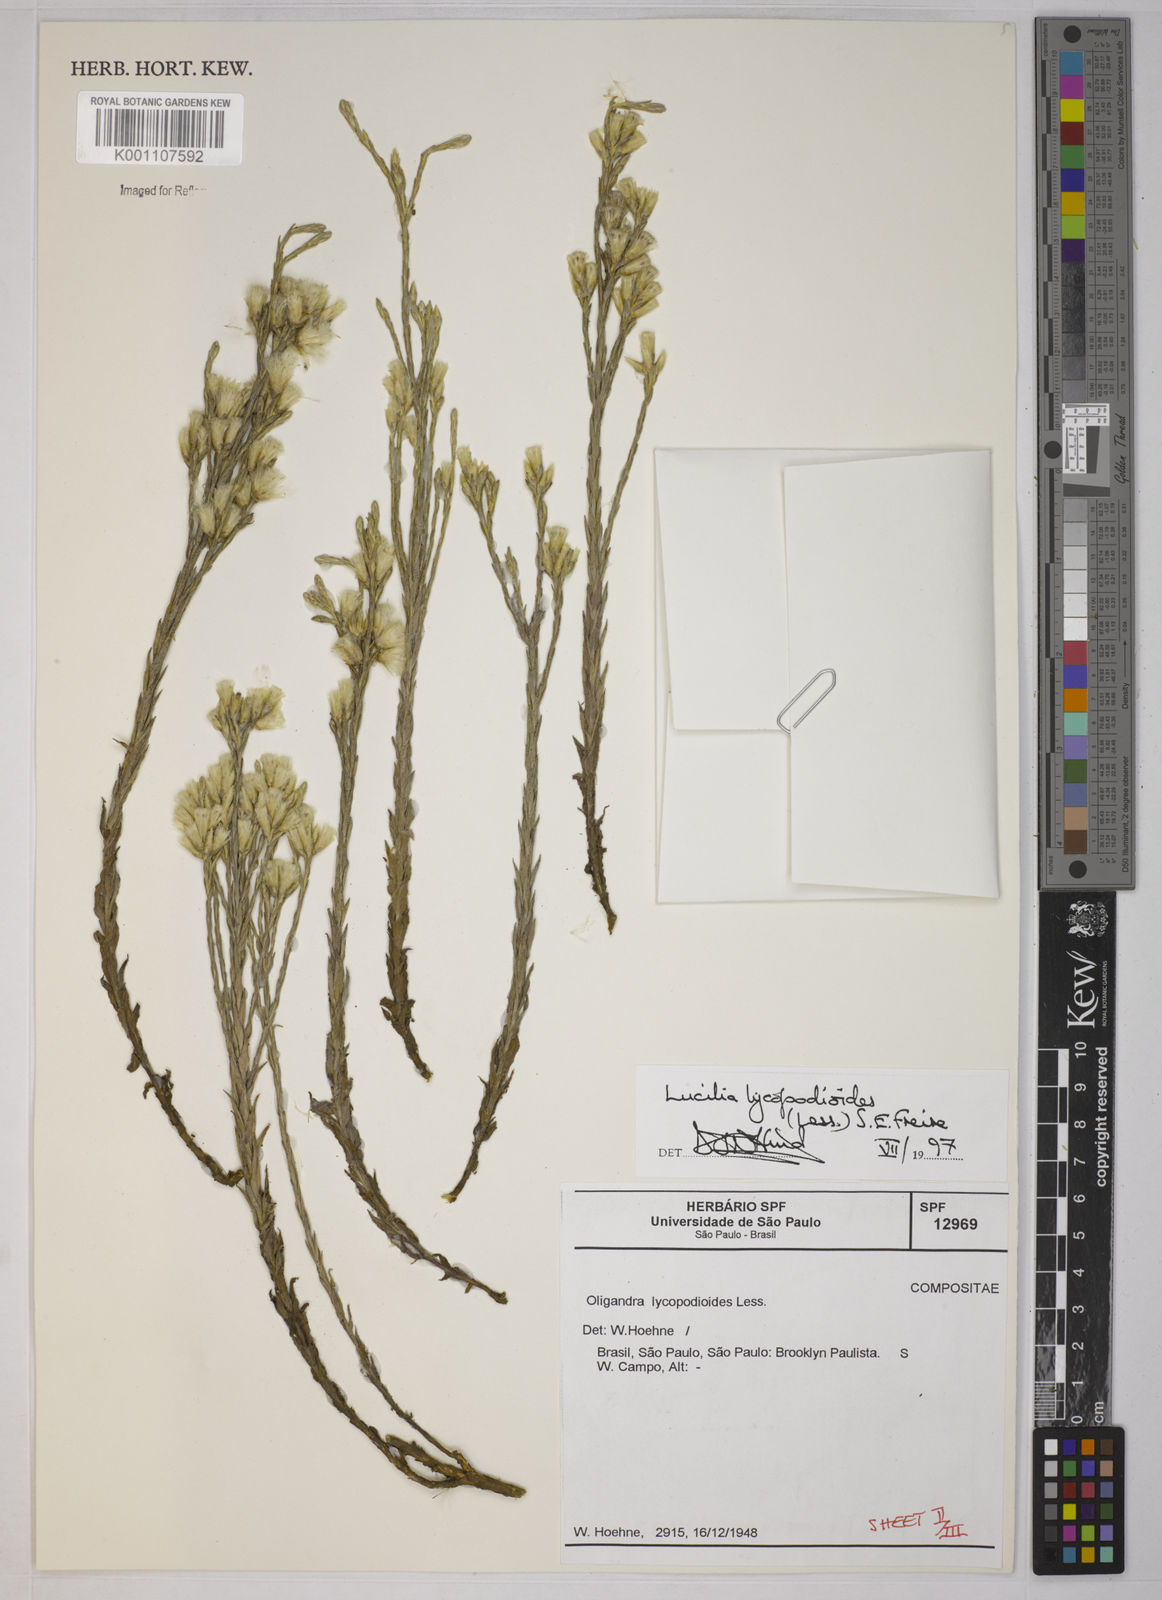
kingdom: Plantae
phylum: Tracheophyta
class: Magnoliopsida
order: Asterales
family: Asteraceae
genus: Lucilia
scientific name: Lucilia lycopodioides
